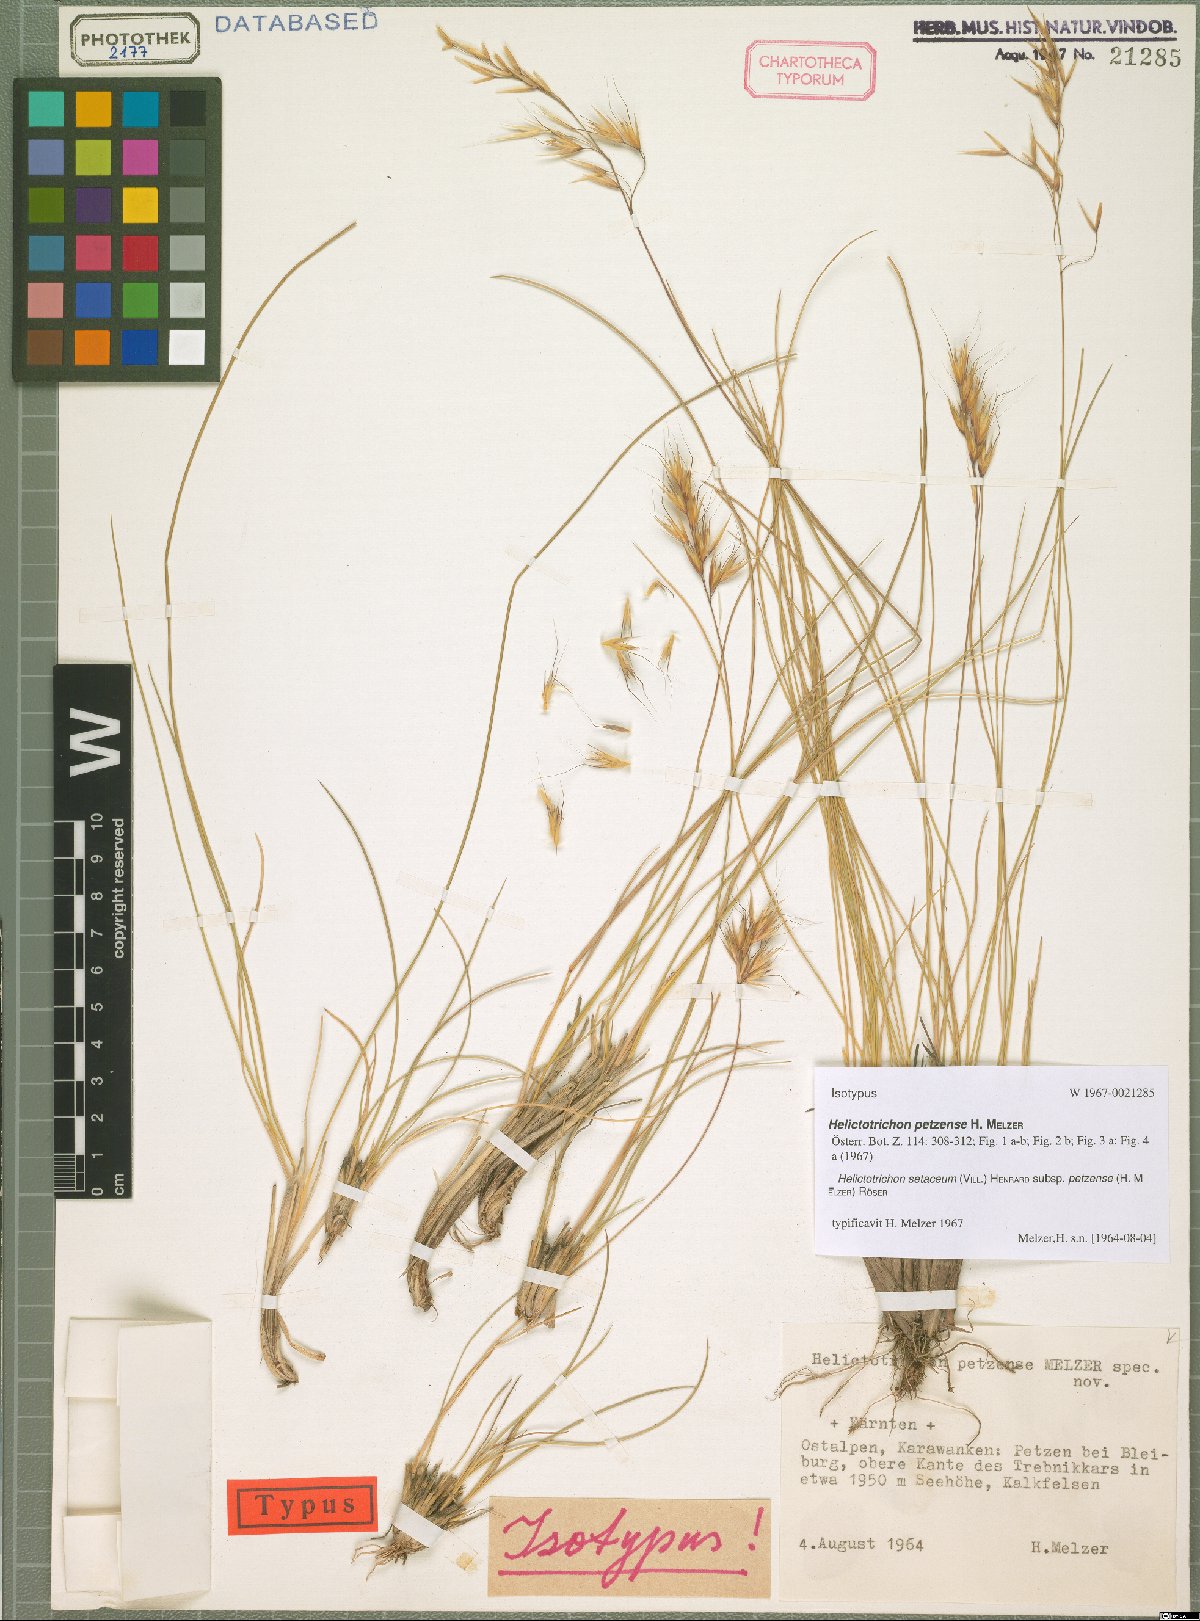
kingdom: Plantae
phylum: Tracheophyta
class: Liliopsida
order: Poales
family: Poaceae
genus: Helictotrichon
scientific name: Helictotrichon petzense
